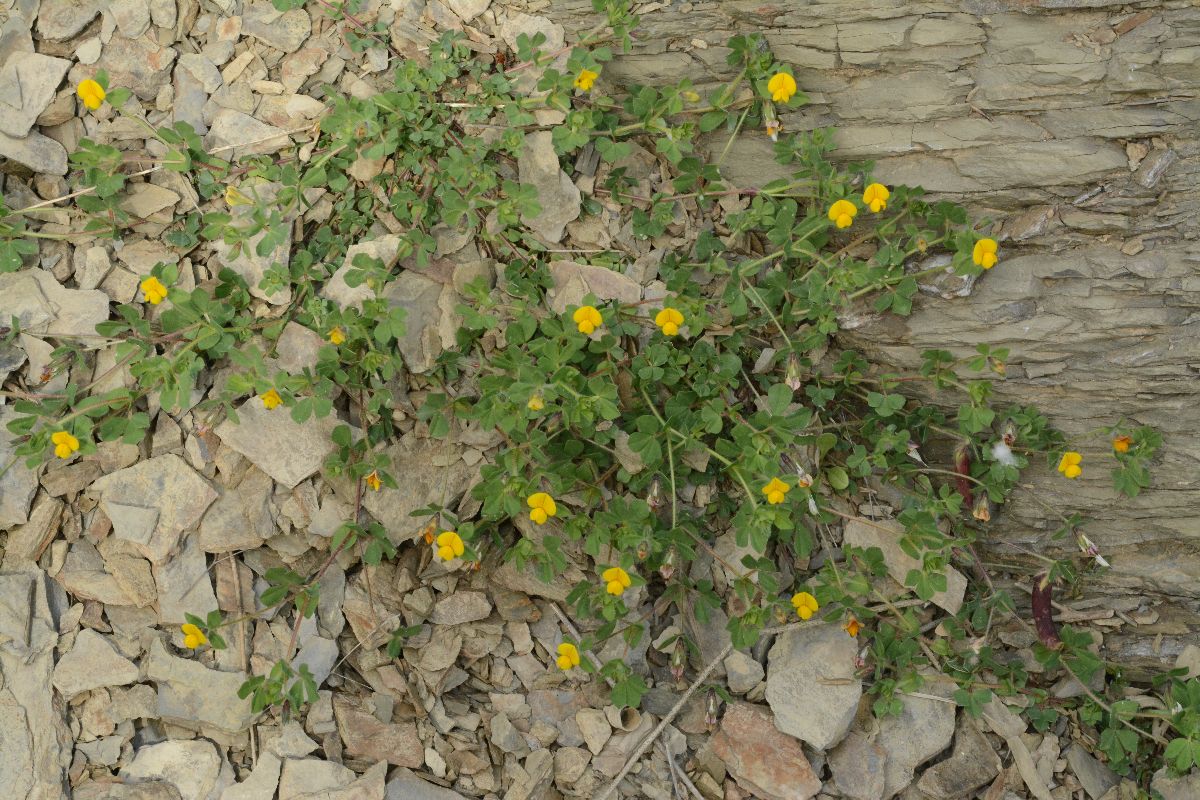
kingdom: Plantae
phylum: Tracheophyta
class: Magnoliopsida
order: Fabales
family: Fabaceae
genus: Lotus
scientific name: Lotus edulis
